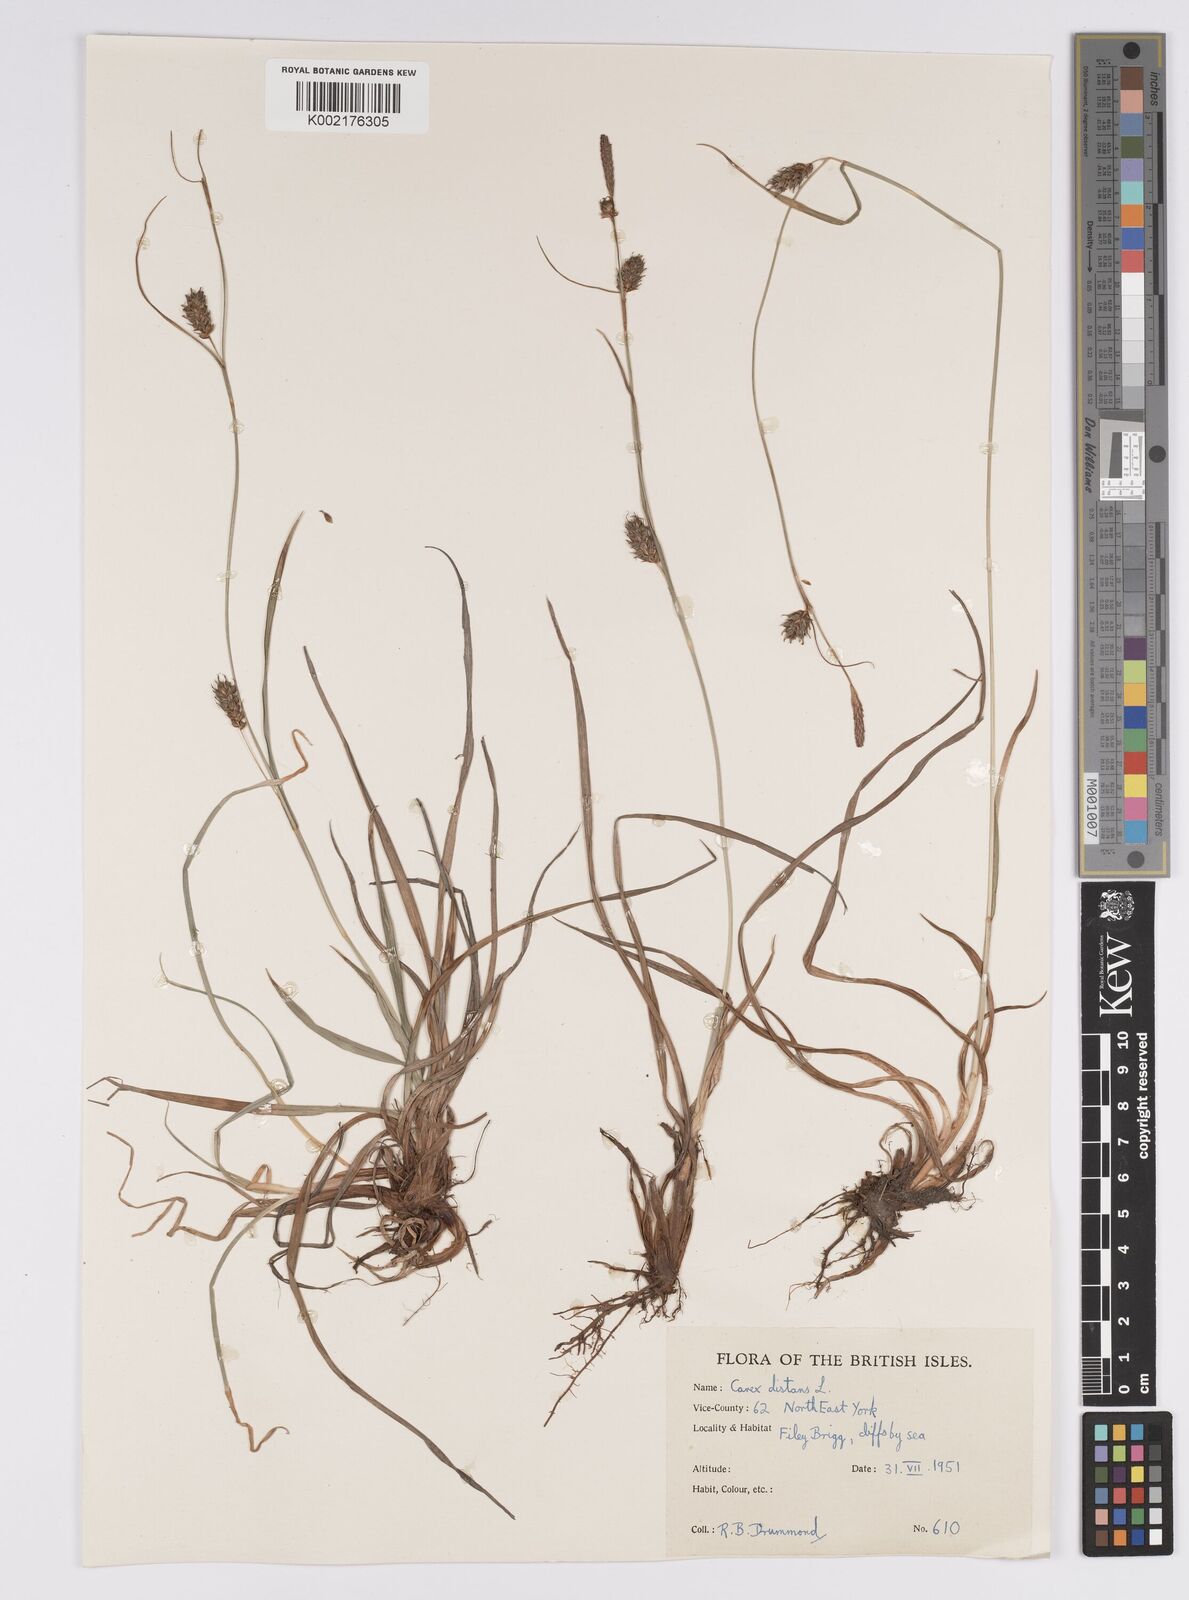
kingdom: Plantae
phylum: Tracheophyta
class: Liliopsida
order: Poales
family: Cyperaceae
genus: Carex
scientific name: Carex distans
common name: Distant sedge
